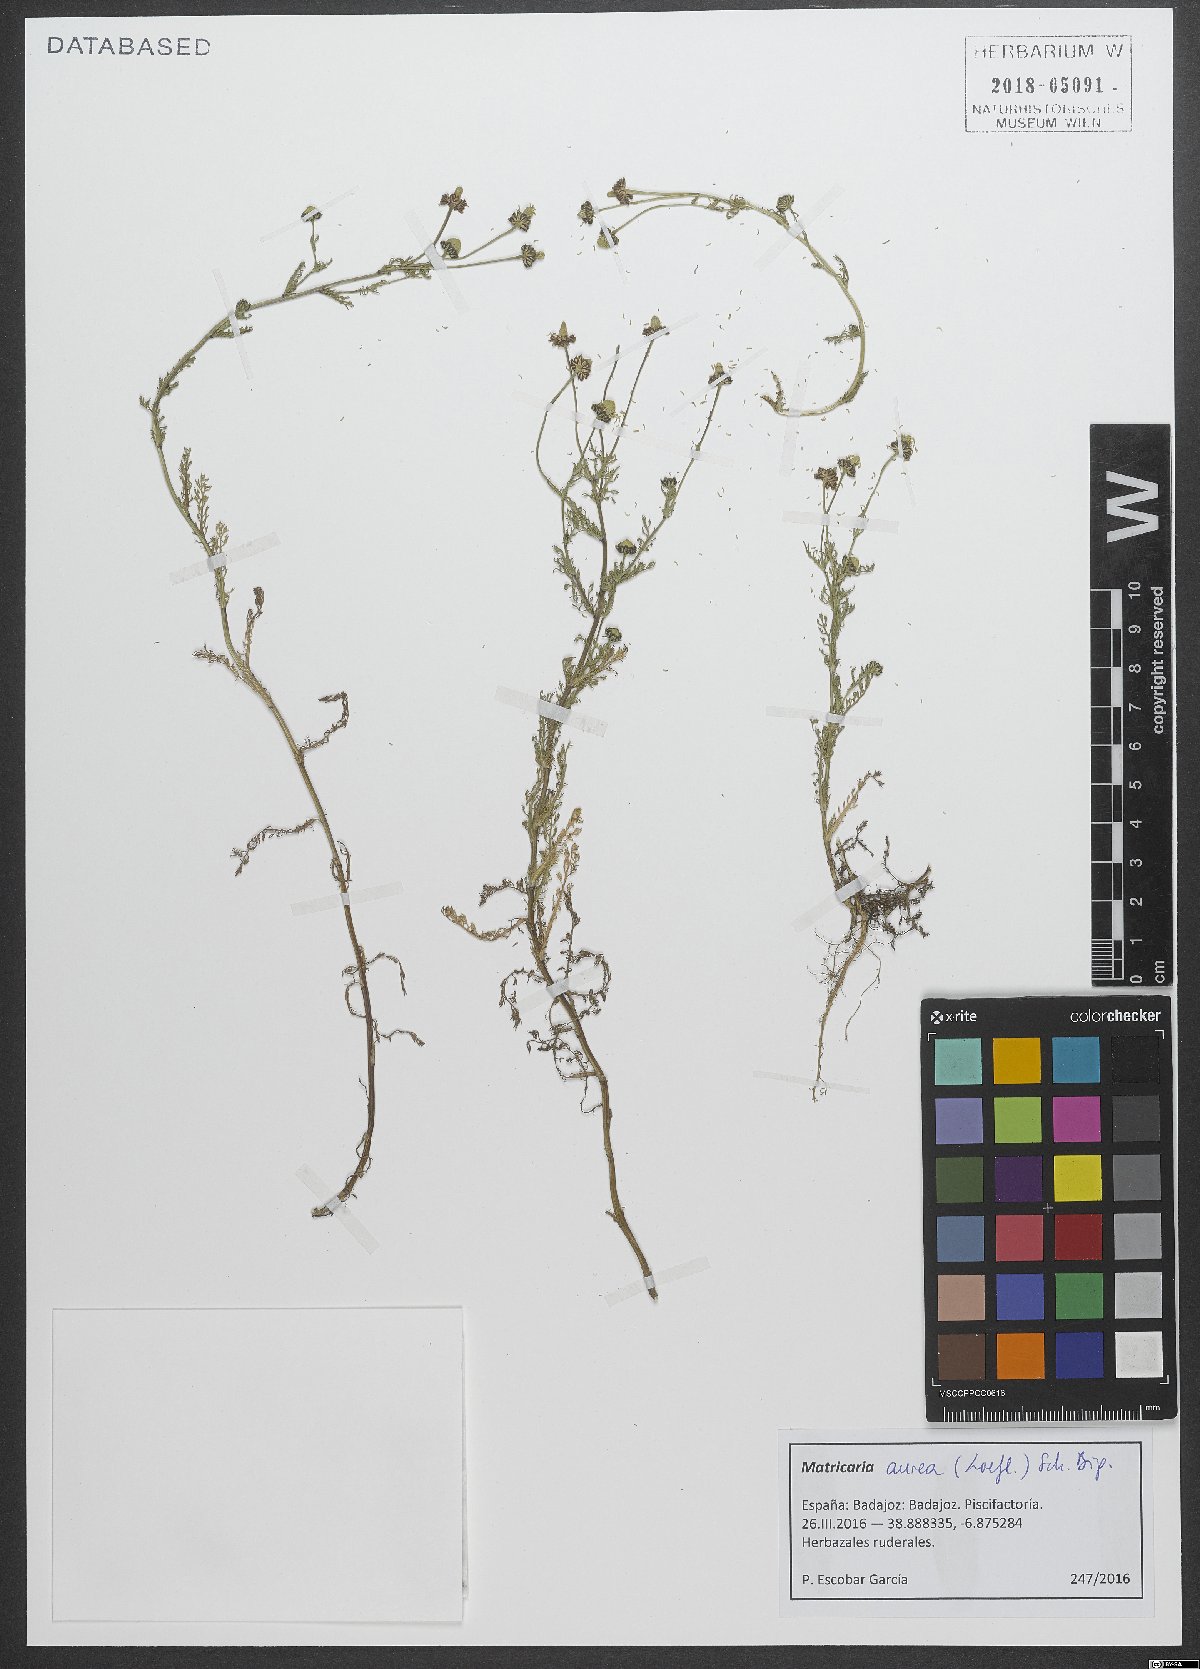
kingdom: Plantae
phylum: Tracheophyta
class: Magnoliopsida
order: Asterales
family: Asteraceae
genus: Matricaria
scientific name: Matricaria aurea
